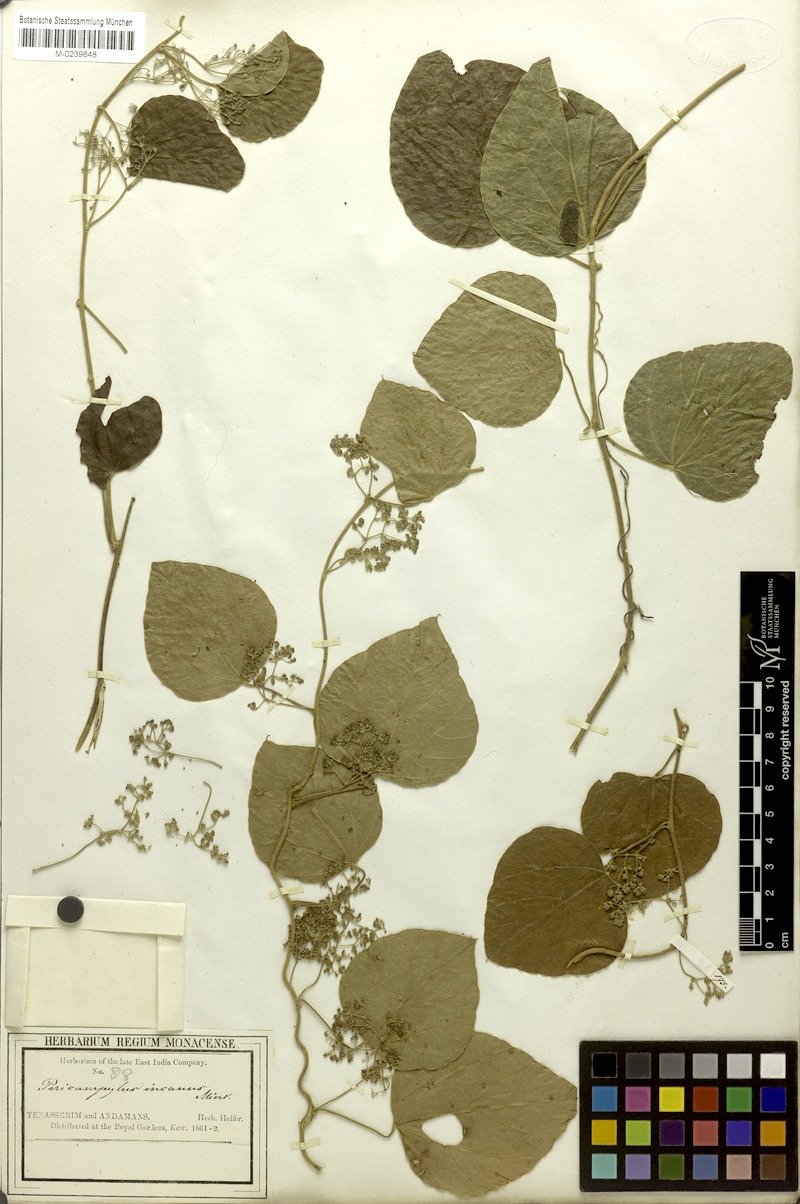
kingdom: Plantae
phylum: Tracheophyta
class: Magnoliopsida
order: Ranunculales
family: Menispermaceae
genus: Pericampylus
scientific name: Pericampylus glaucus
